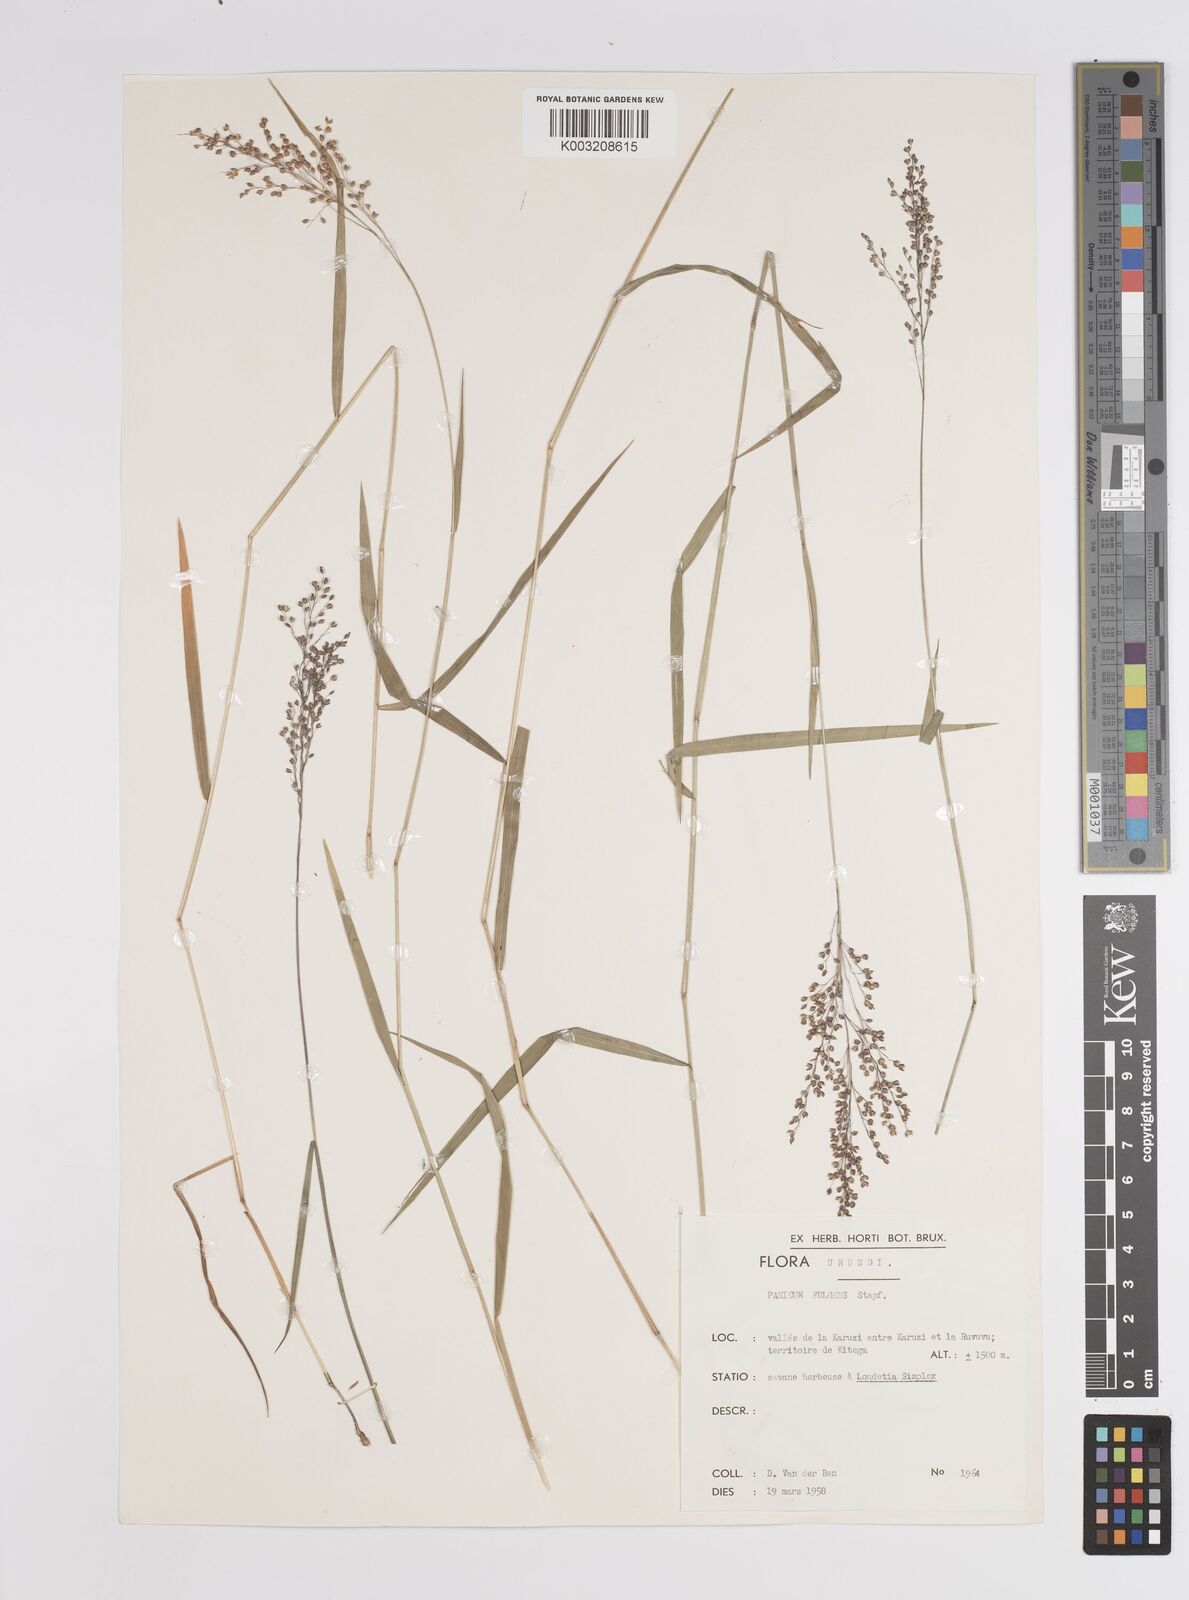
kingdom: Plantae
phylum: Tracheophyta
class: Liliopsida
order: Poales
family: Poaceae
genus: Trichanthecium
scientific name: Trichanthecium nervatum
